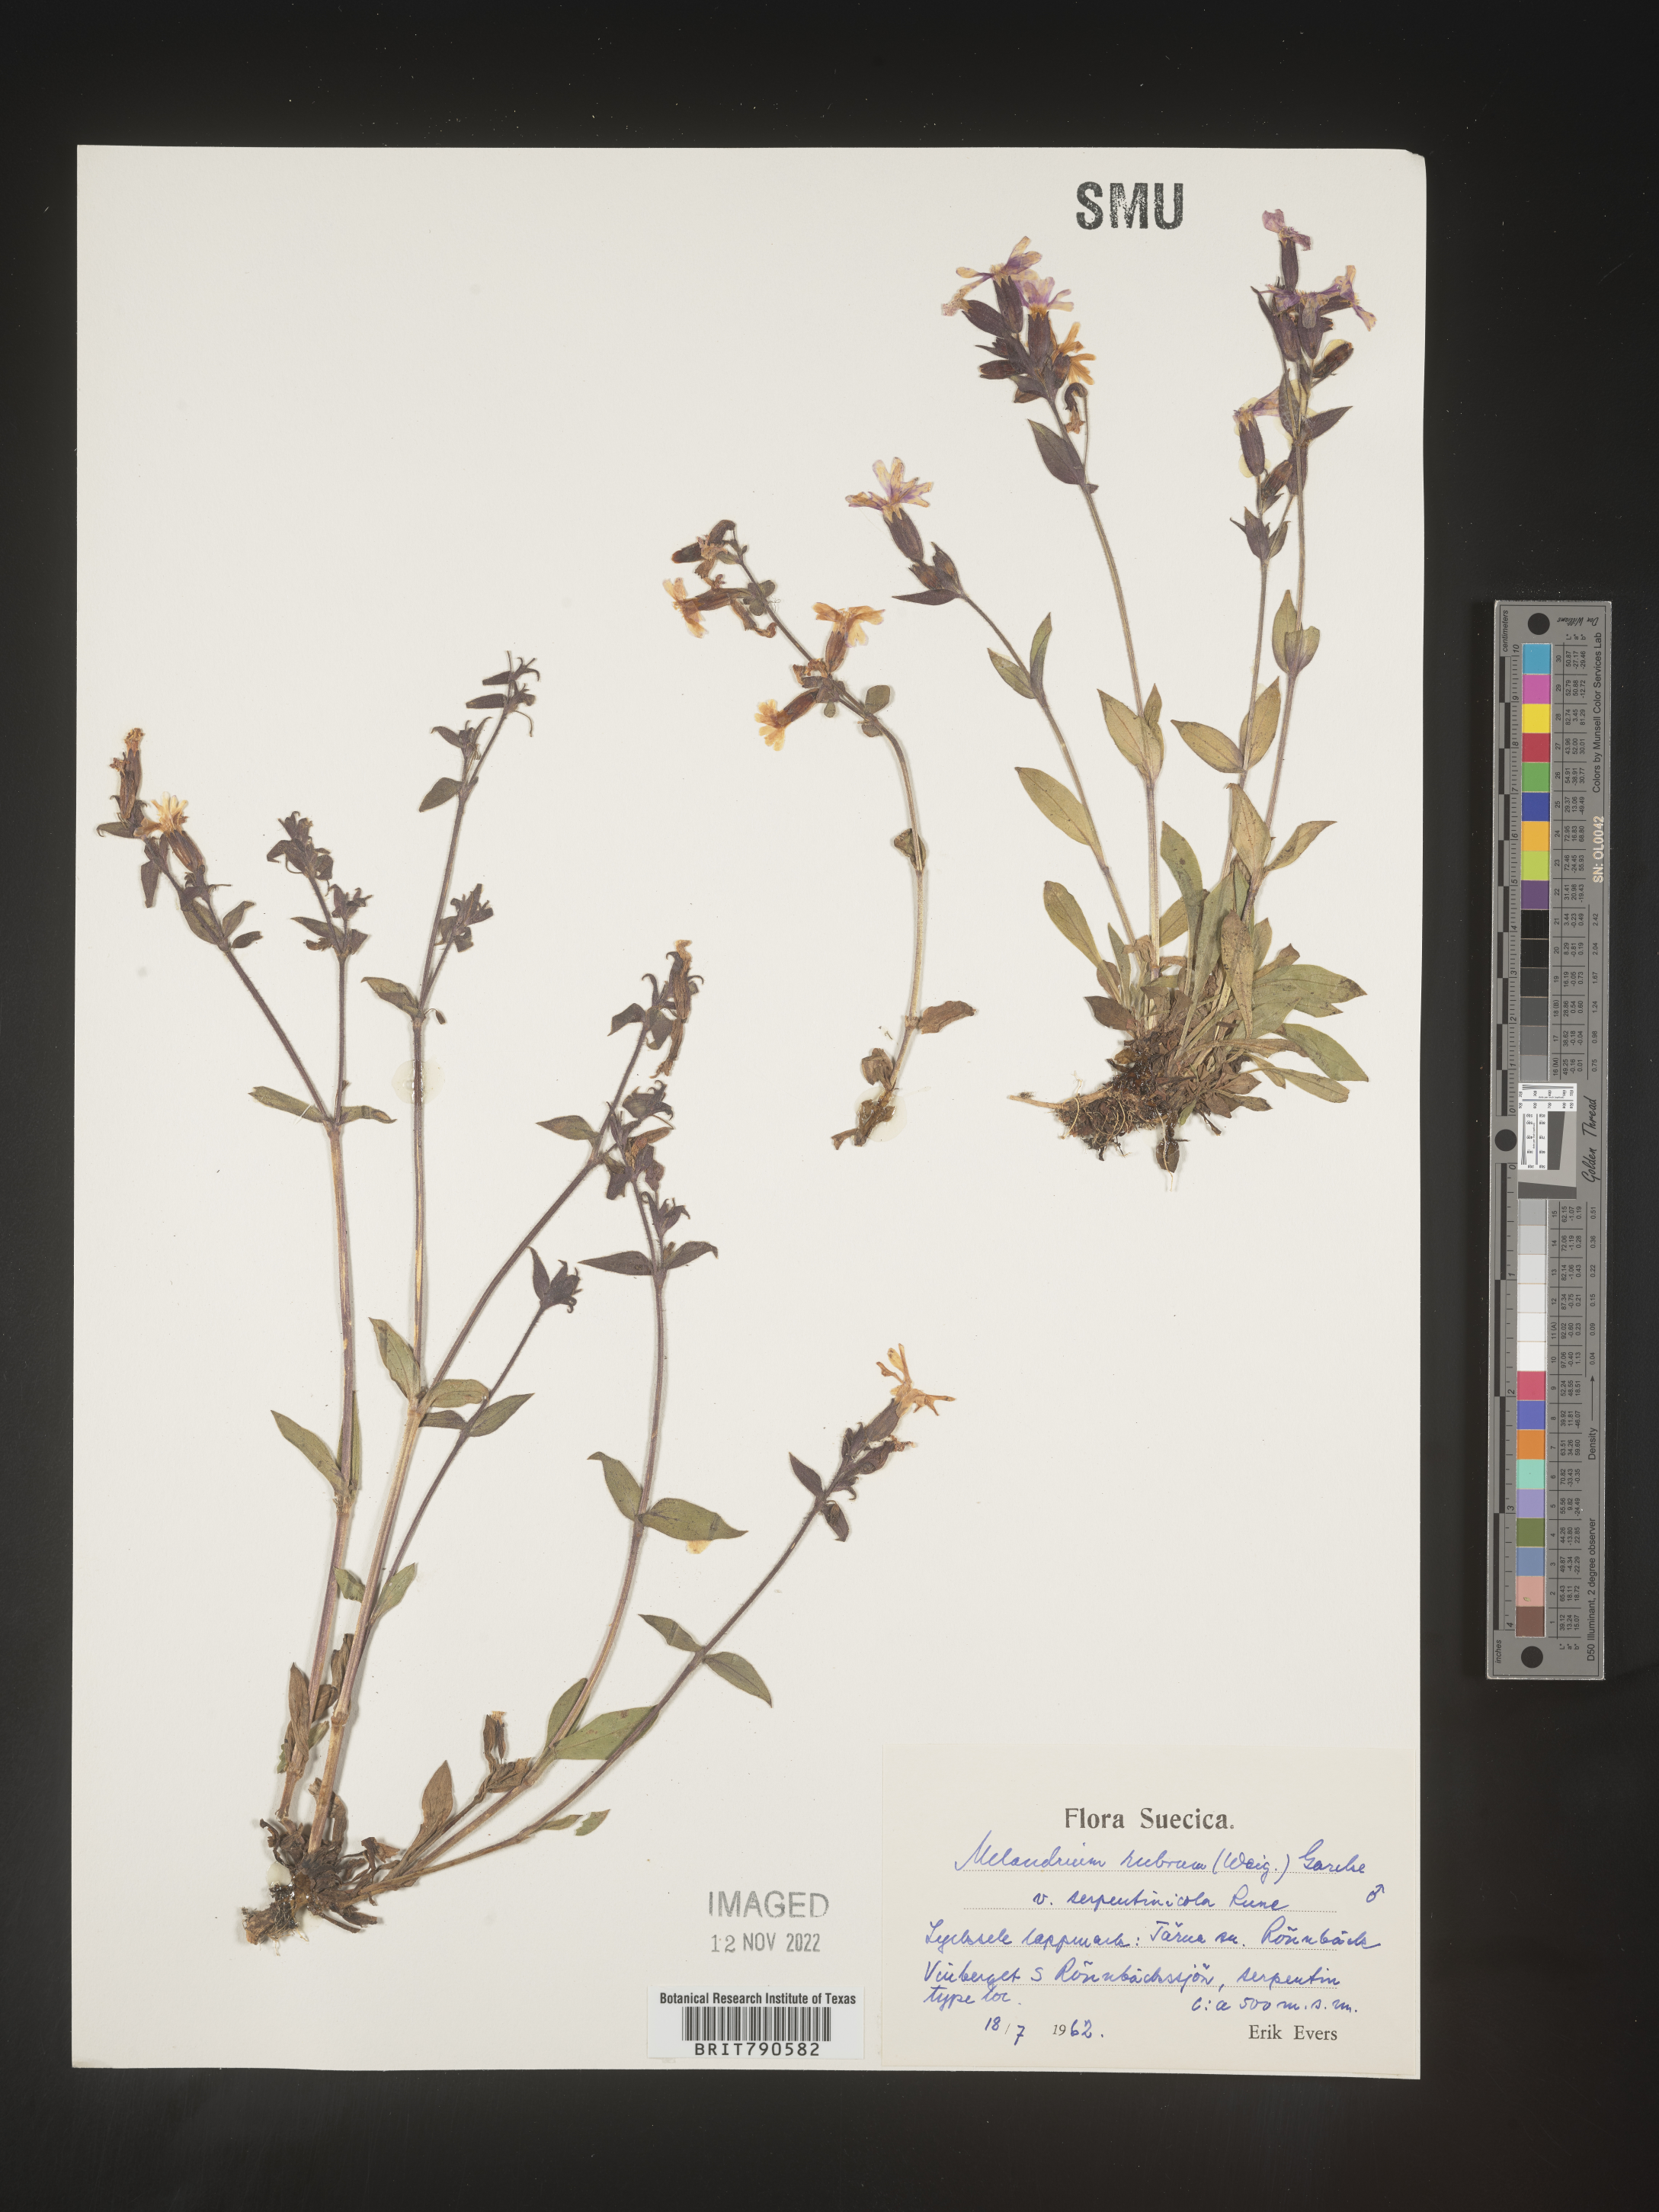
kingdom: Plantae
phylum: Tracheophyta
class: Magnoliopsida
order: Caryophyllales
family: Caryophyllaceae
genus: Silene
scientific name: Silene
